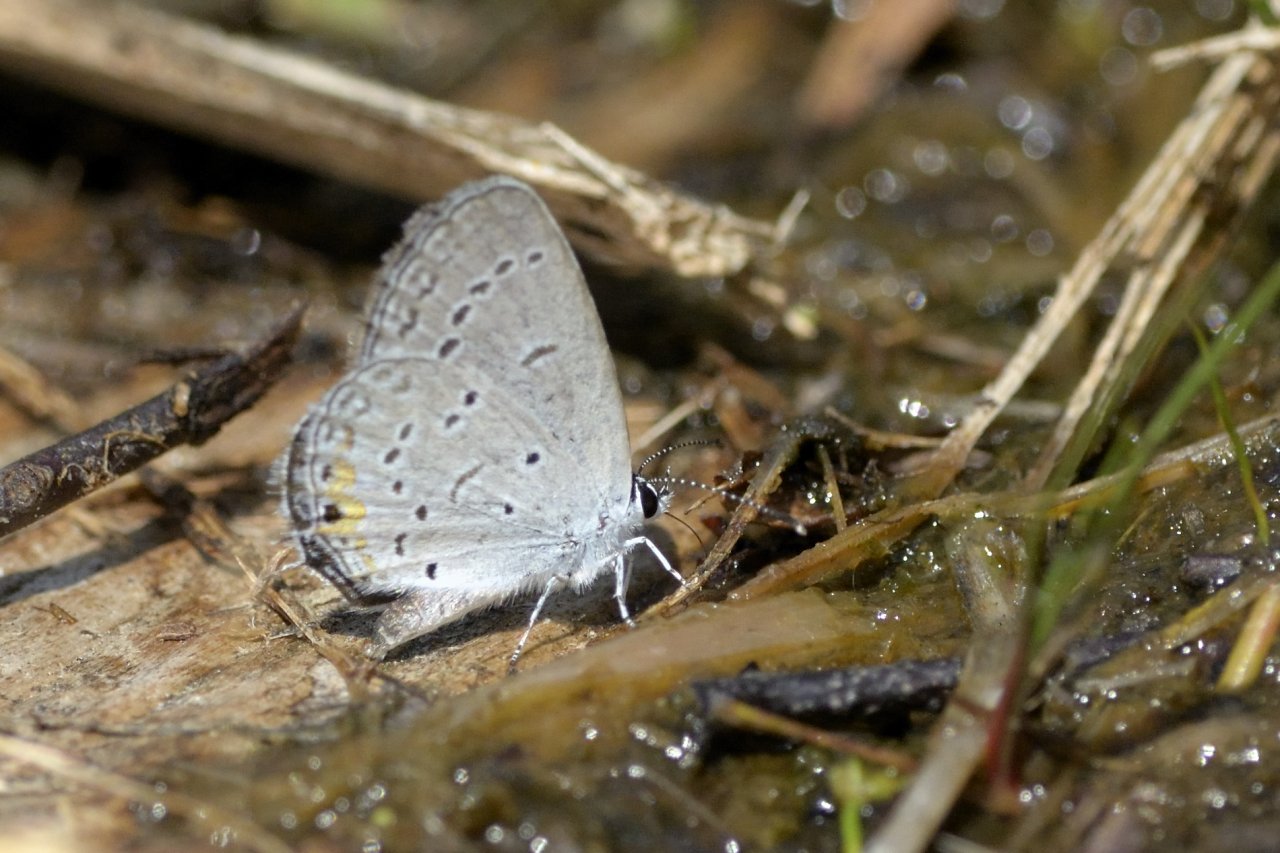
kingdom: Animalia
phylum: Arthropoda
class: Insecta
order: Lepidoptera
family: Lycaenidae
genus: Elkalyce
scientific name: Elkalyce comyntas
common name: Eastern Tailed-Blue
